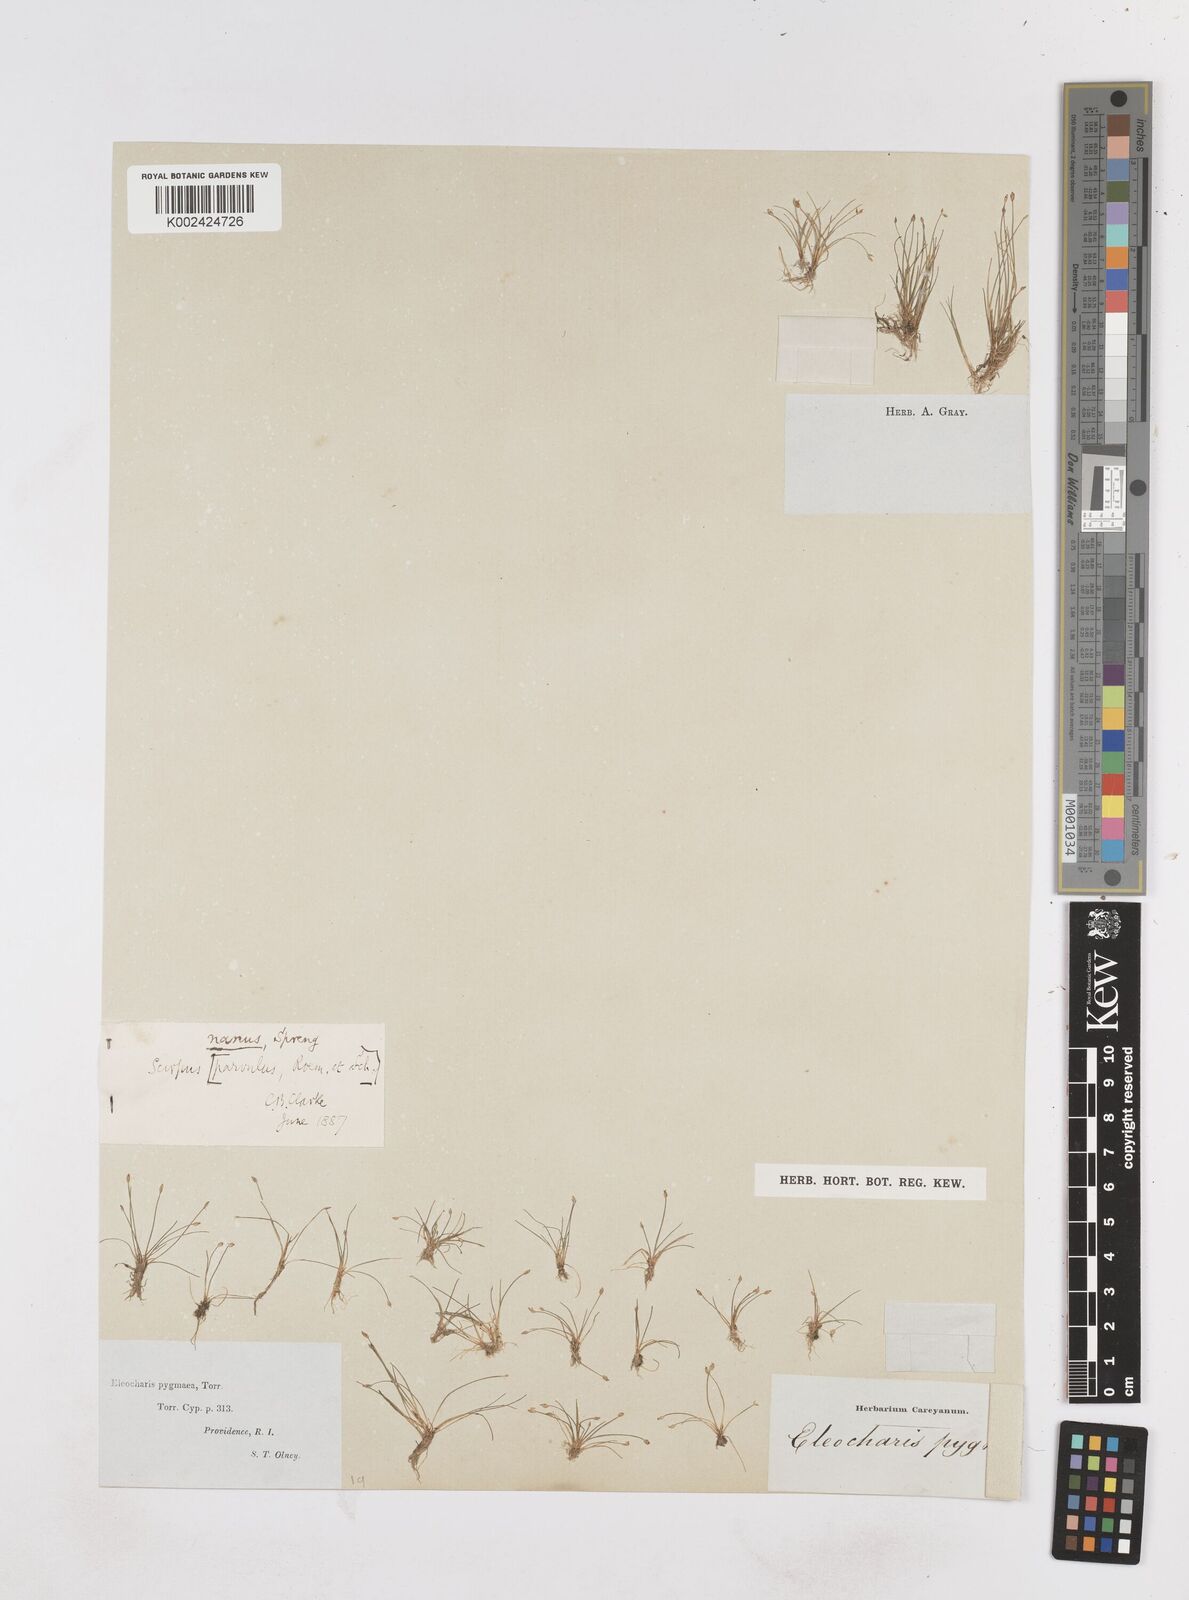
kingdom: Plantae
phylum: Tracheophyta
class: Liliopsida
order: Poales
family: Cyperaceae
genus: Eleocharis
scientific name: Eleocharis parvula
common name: Dwarf spike-rush
